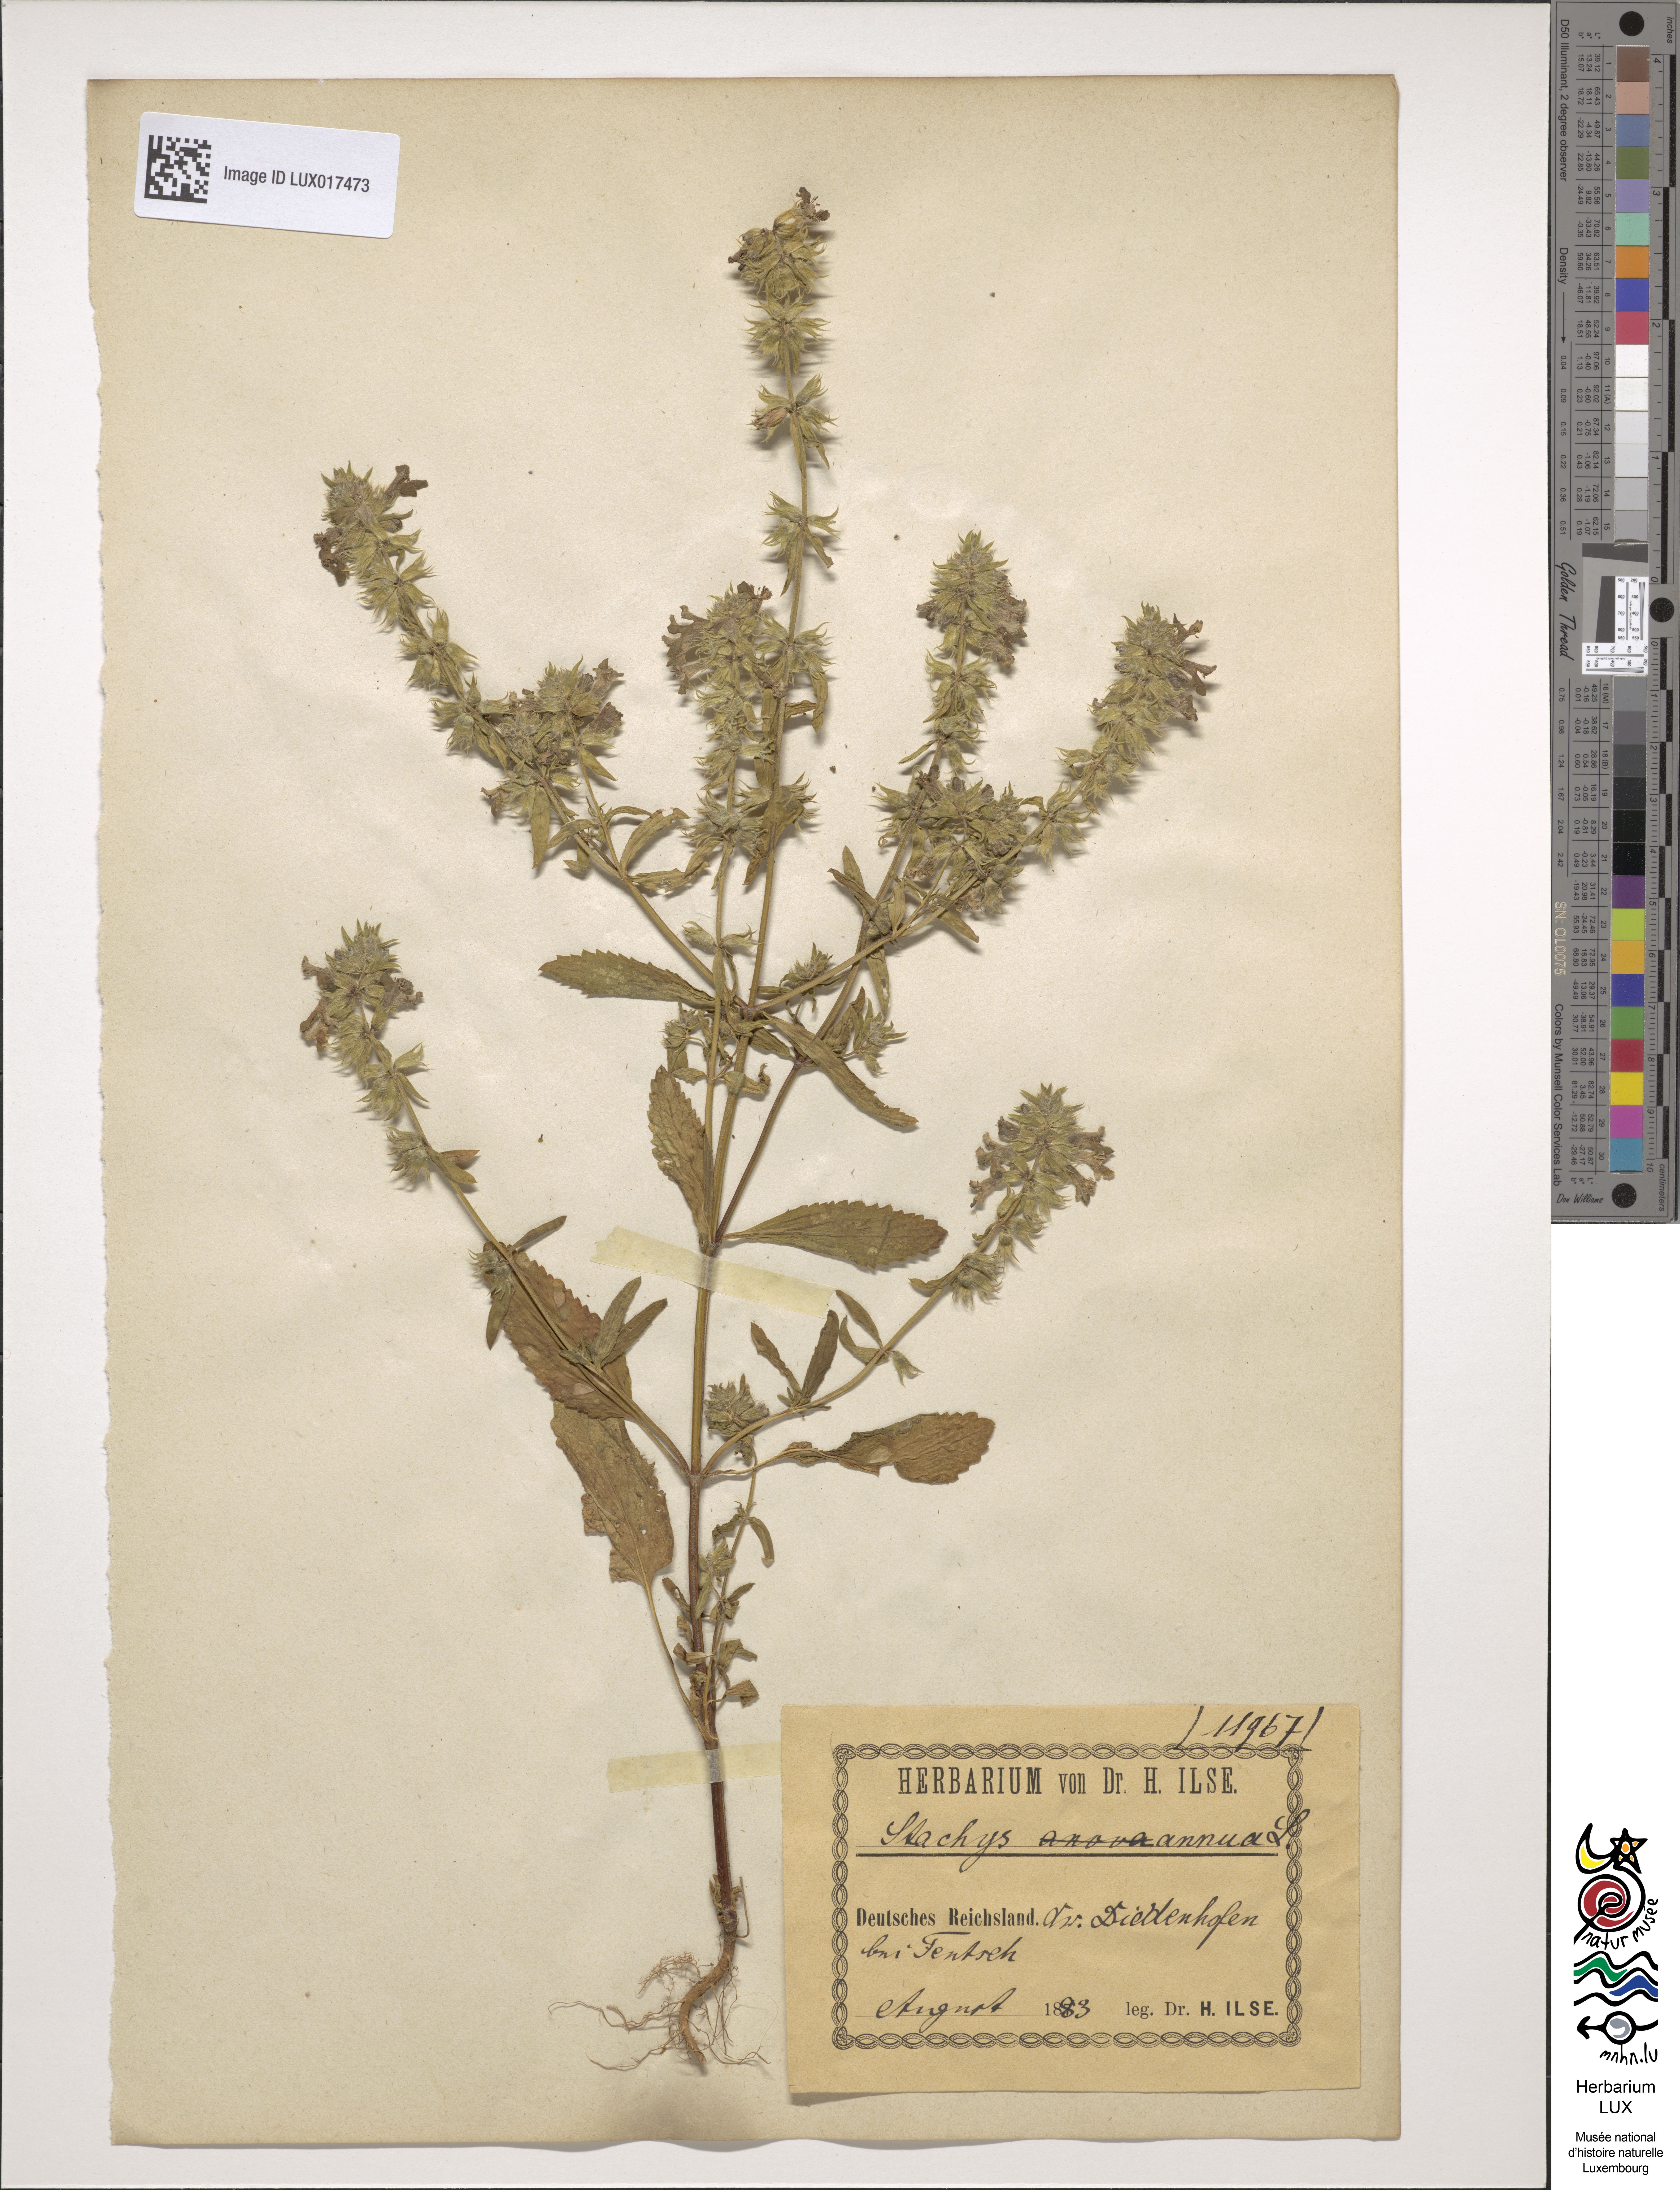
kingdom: Plantae
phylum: Tracheophyta
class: Magnoliopsida
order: Lamiales
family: Lamiaceae
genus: Stachys
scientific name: Stachys annua
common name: Annual yellow-woundwort
